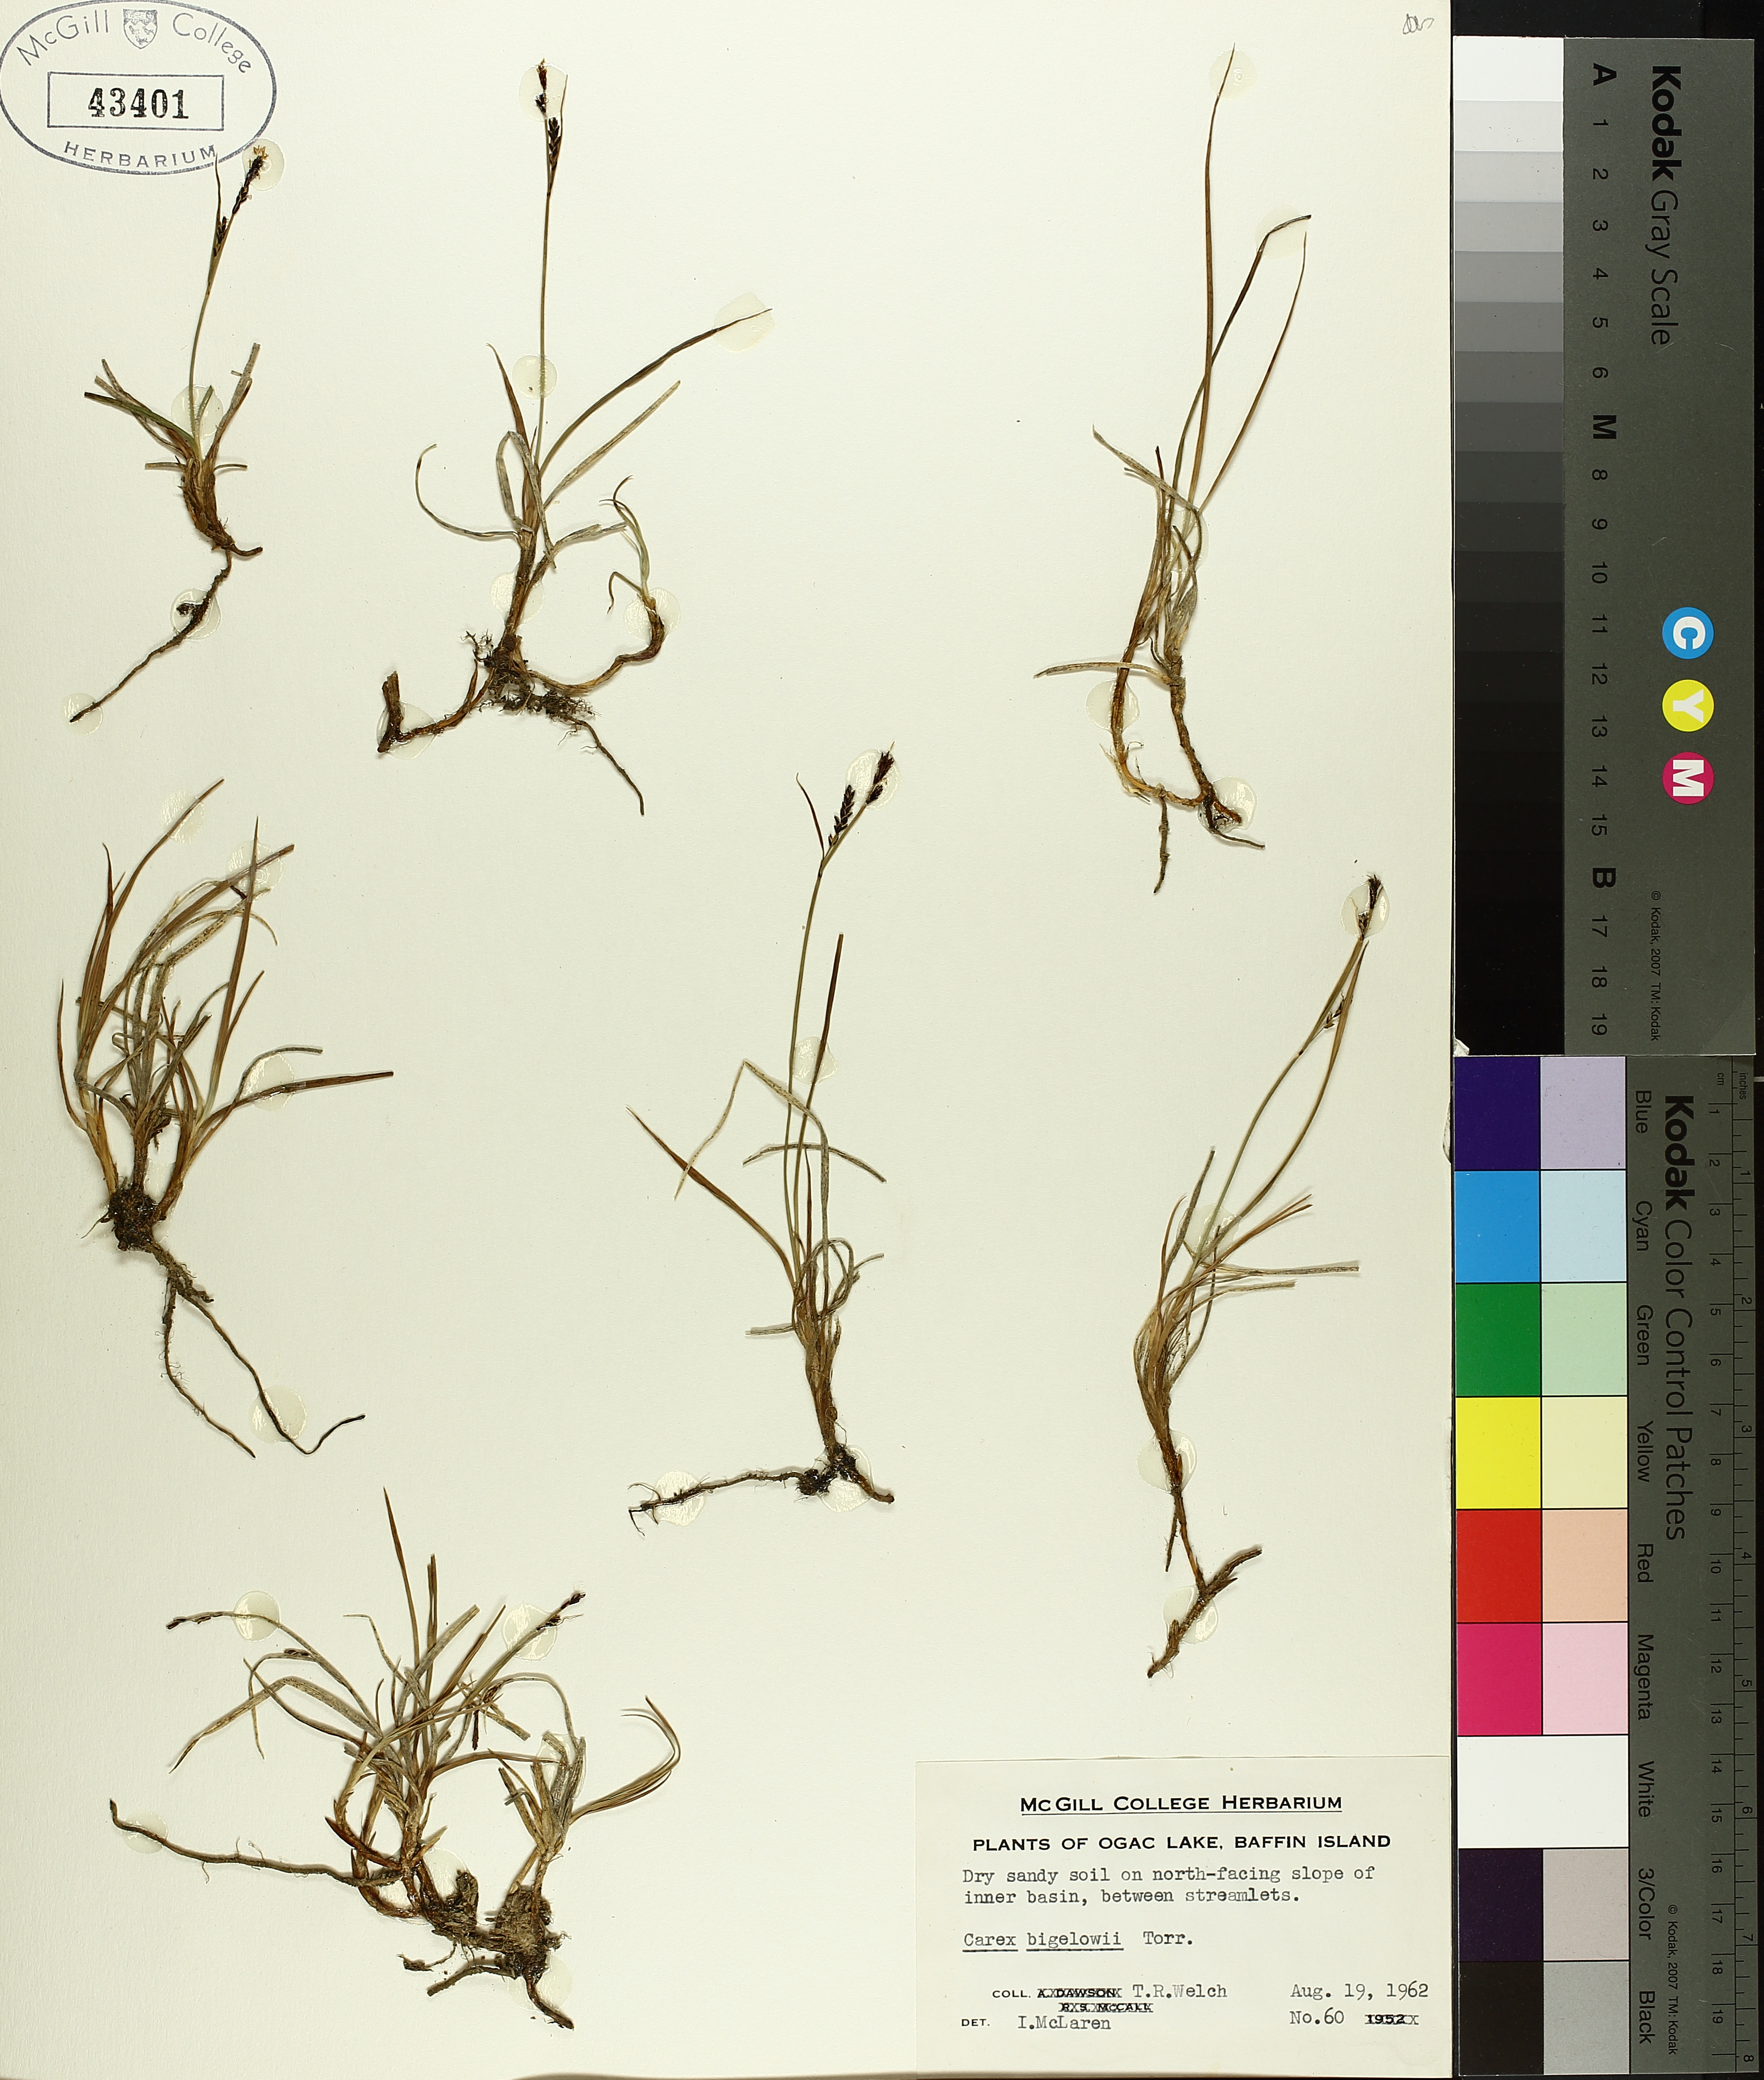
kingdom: Plantae
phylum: Tracheophyta
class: Liliopsida
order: Poales
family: Cyperaceae
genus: Carex
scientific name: Carex bigelowii
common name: Stiff sedge
